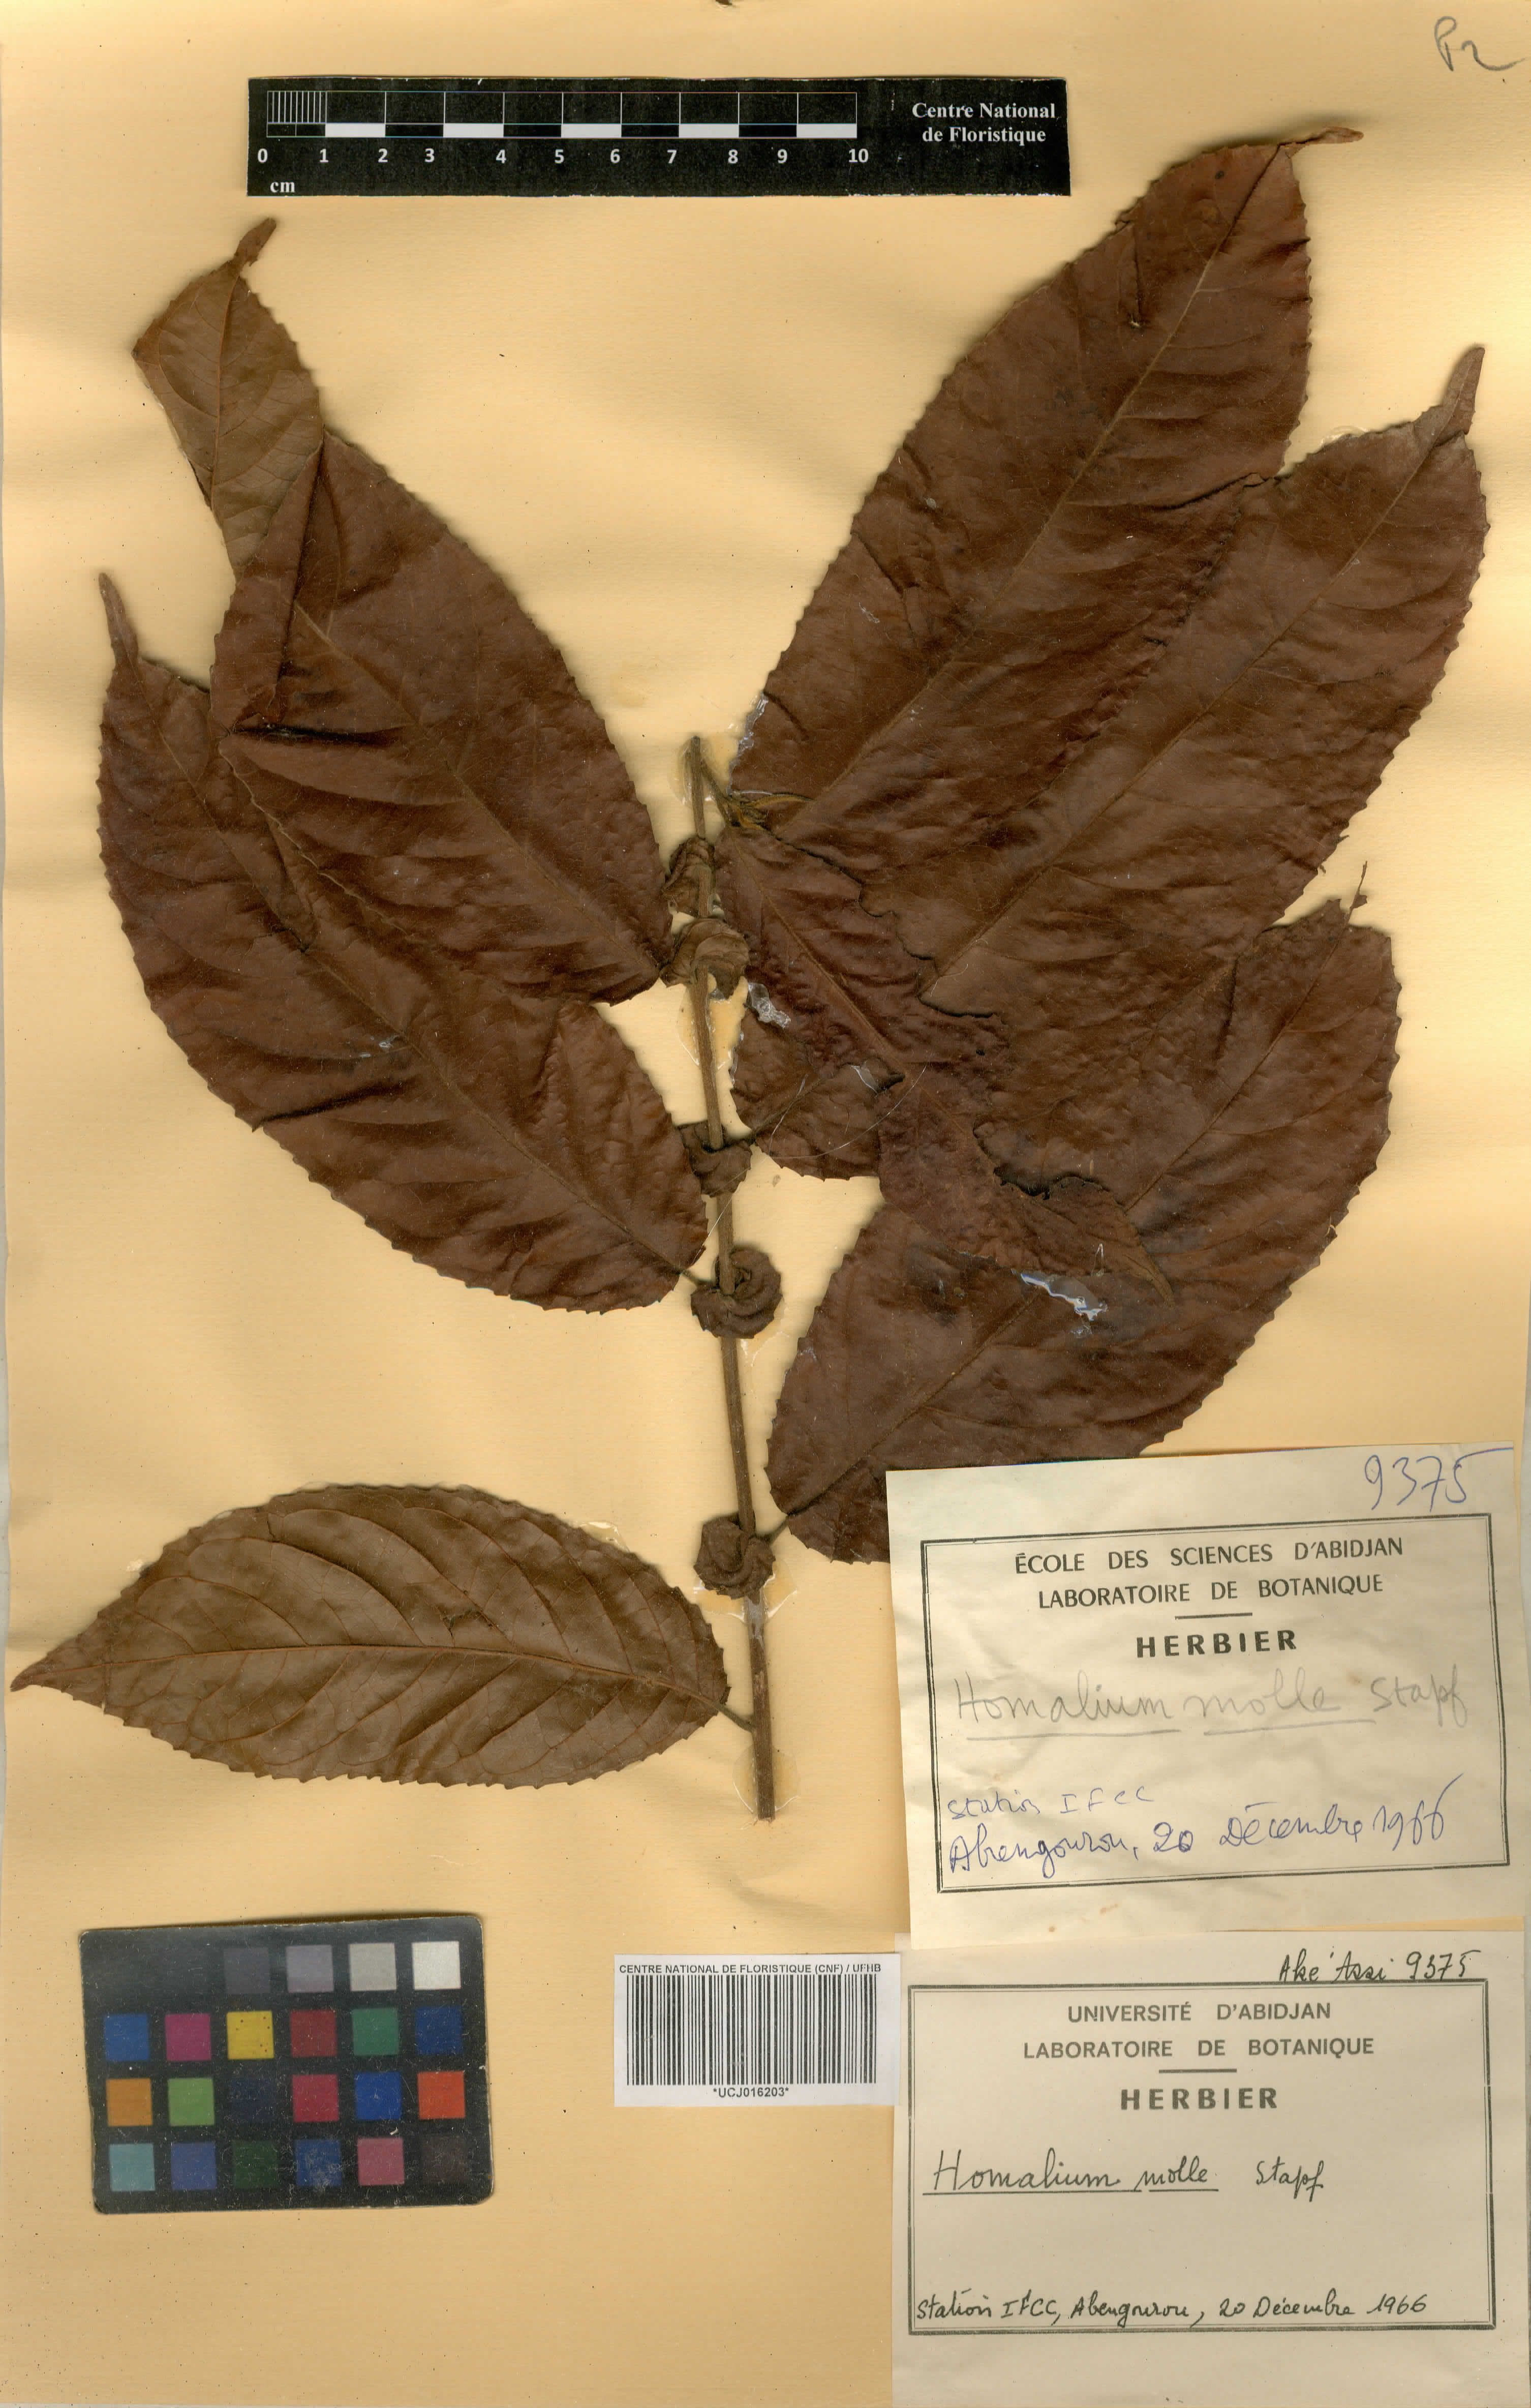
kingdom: Plantae
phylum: Tracheophyta
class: Magnoliopsida
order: Malpighiales
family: Salicaceae
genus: Homalium
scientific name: Homalium africanum
